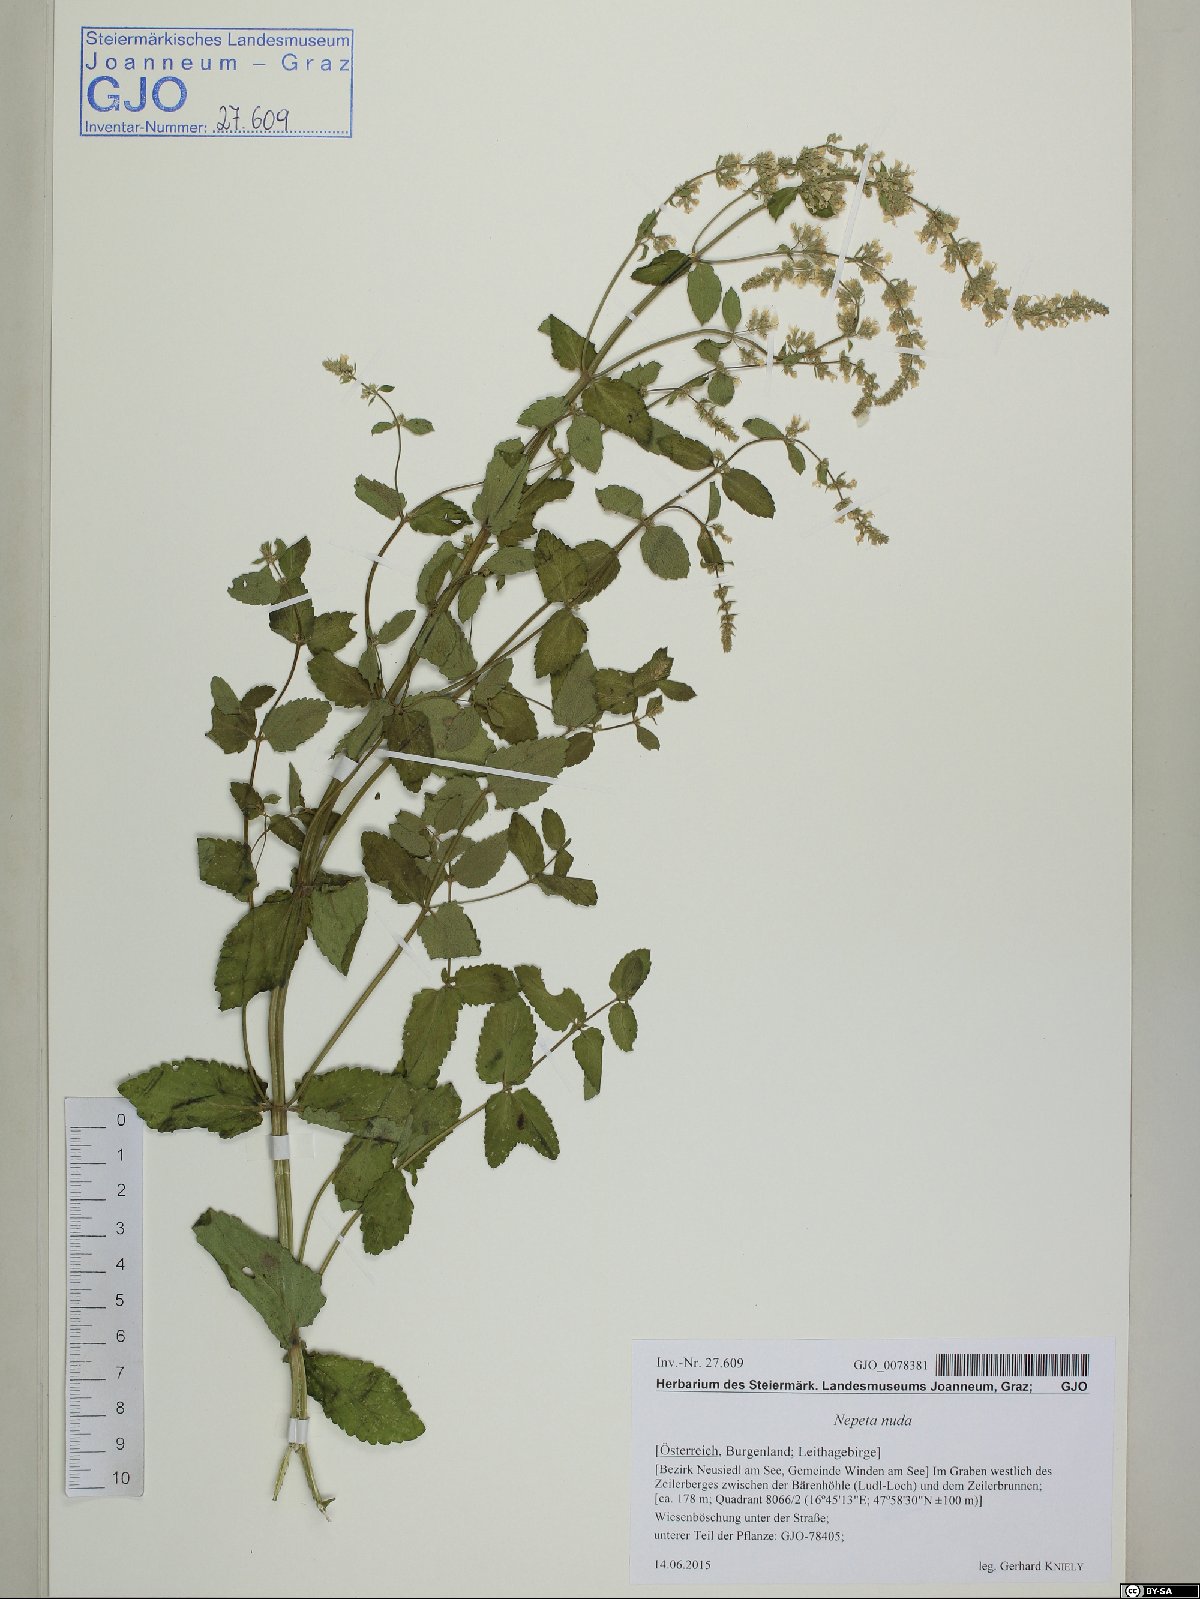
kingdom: Plantae
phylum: Tracheophyta
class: Magnoliopsida
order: Lamiales
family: Lamiaceae
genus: Nepeta
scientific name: Nepeta nuda
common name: Hairless catmint
